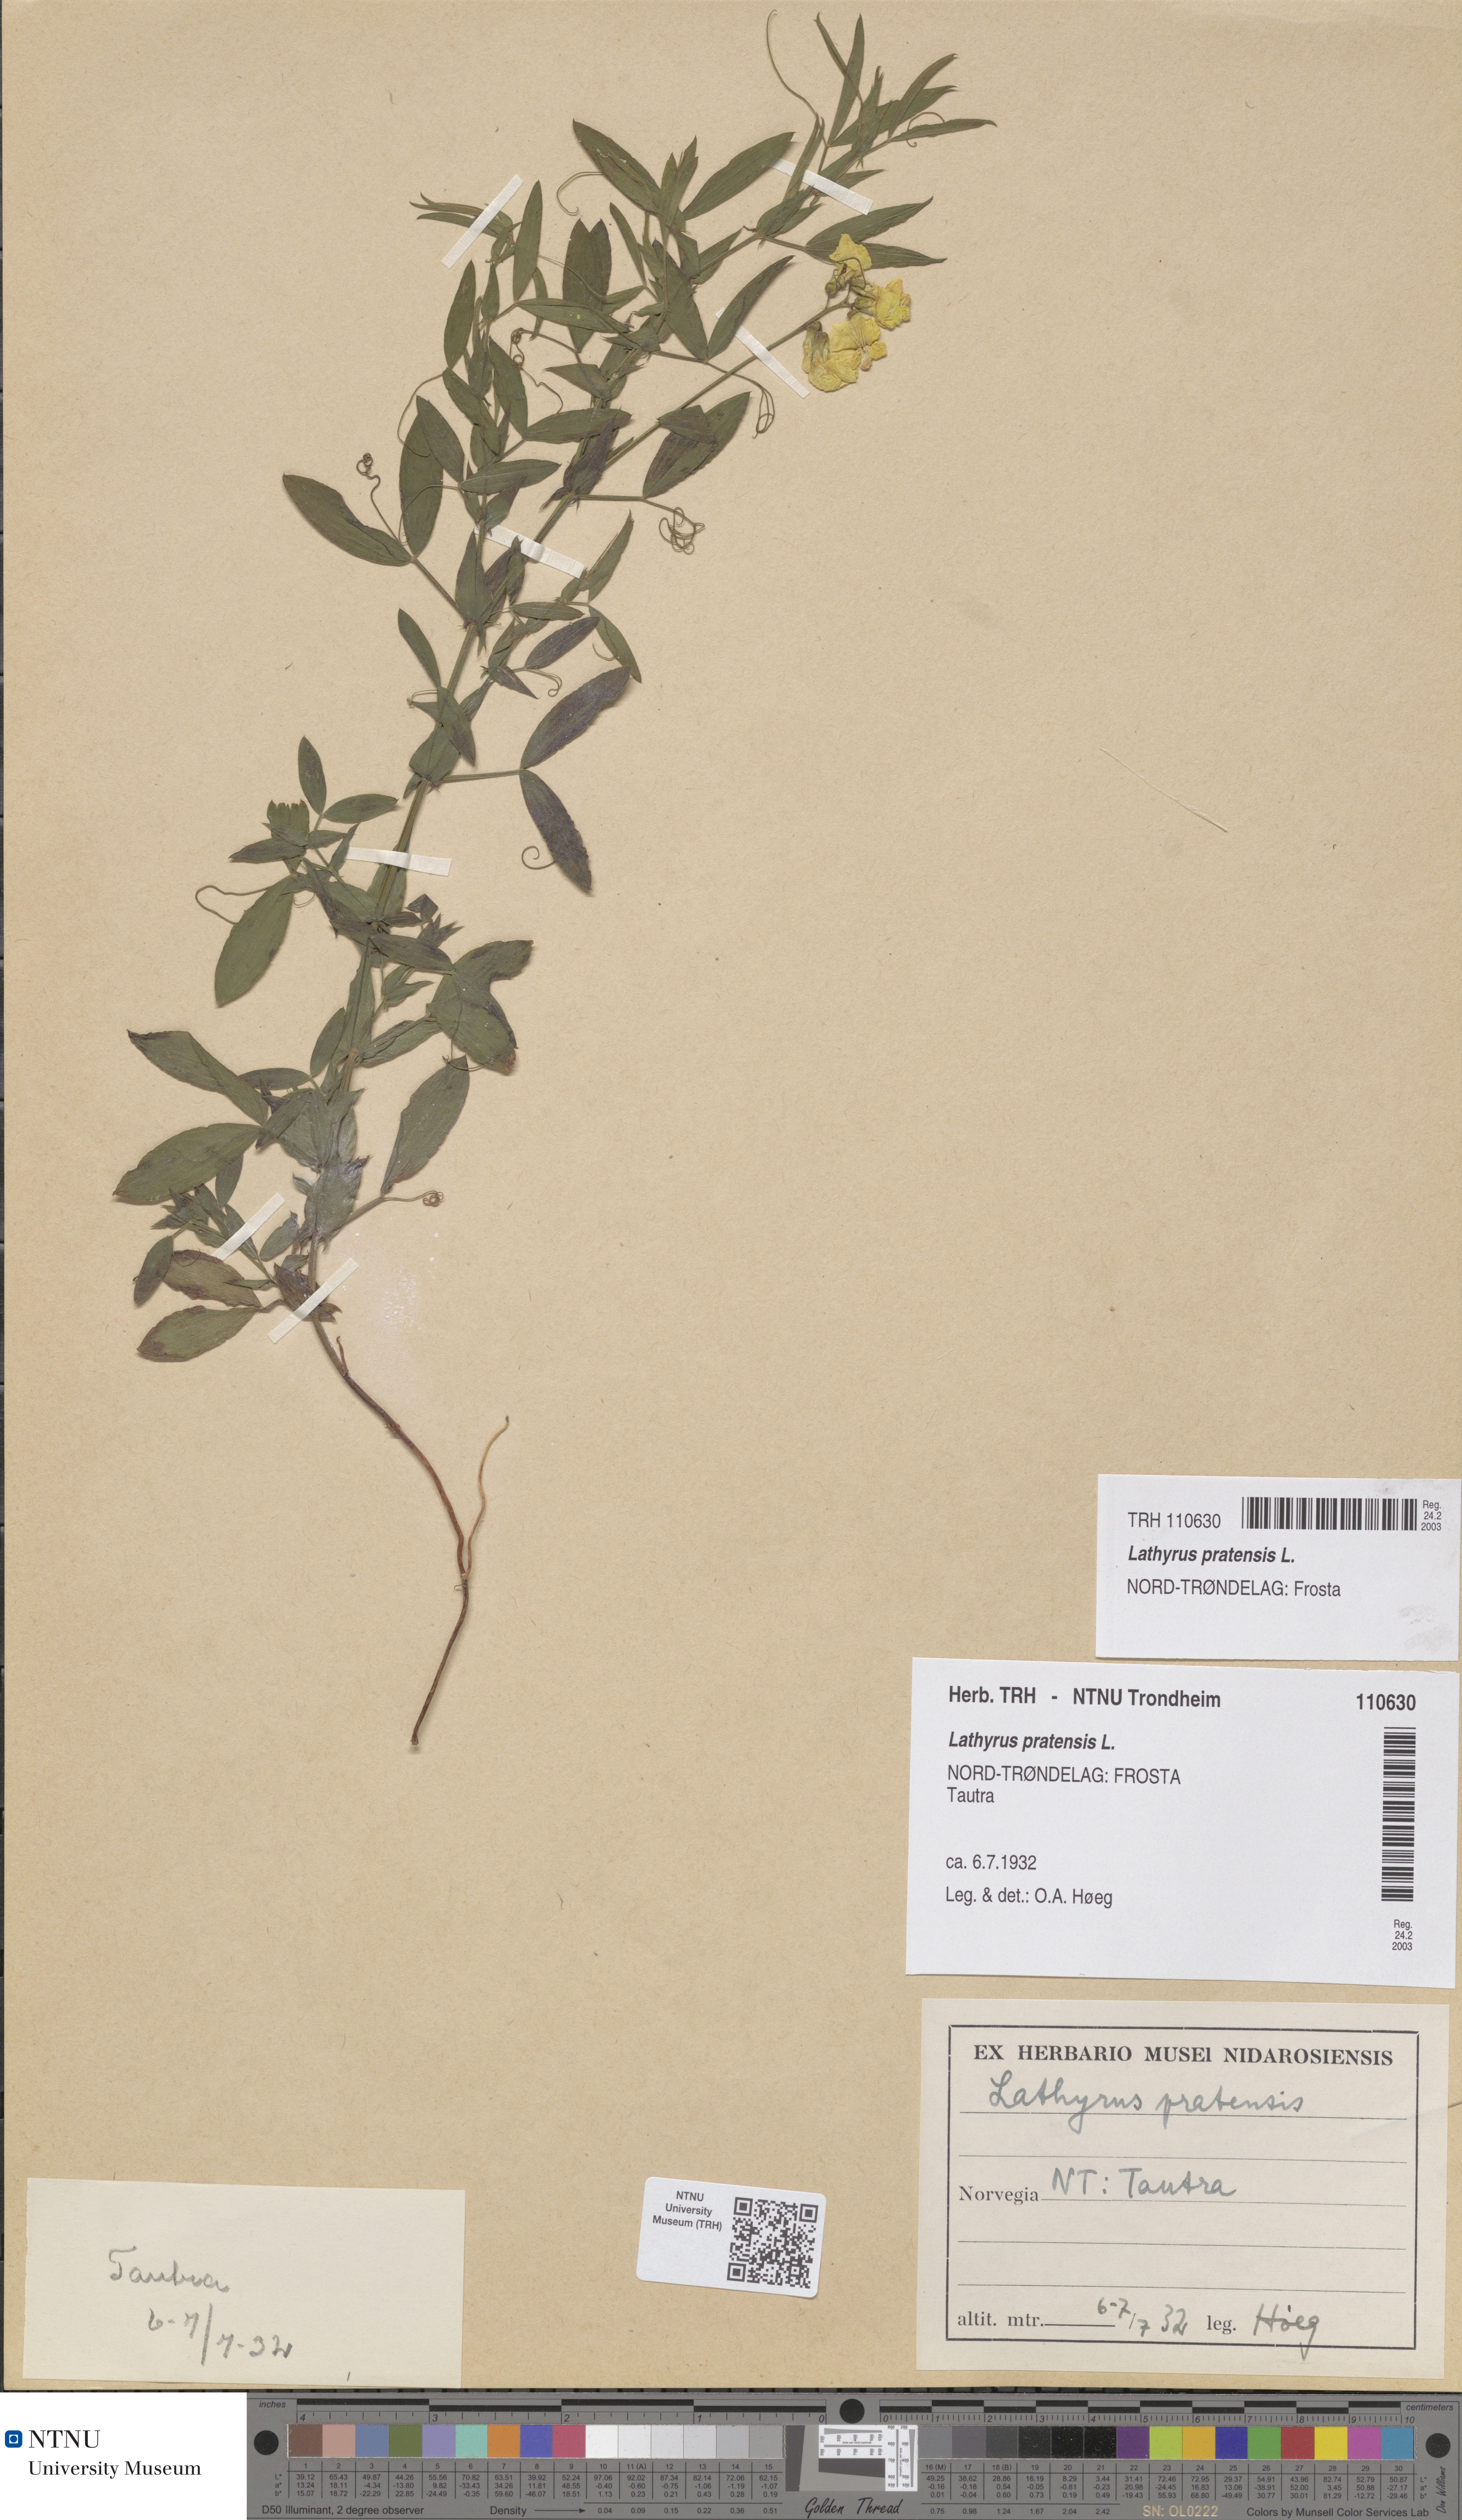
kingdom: Plantae
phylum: Tracheophyta
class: Magnoliopsida
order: Fabales
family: Fabaceae
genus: Lathyrus
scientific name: Lathyrus pratensis
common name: Meadow vetchling
